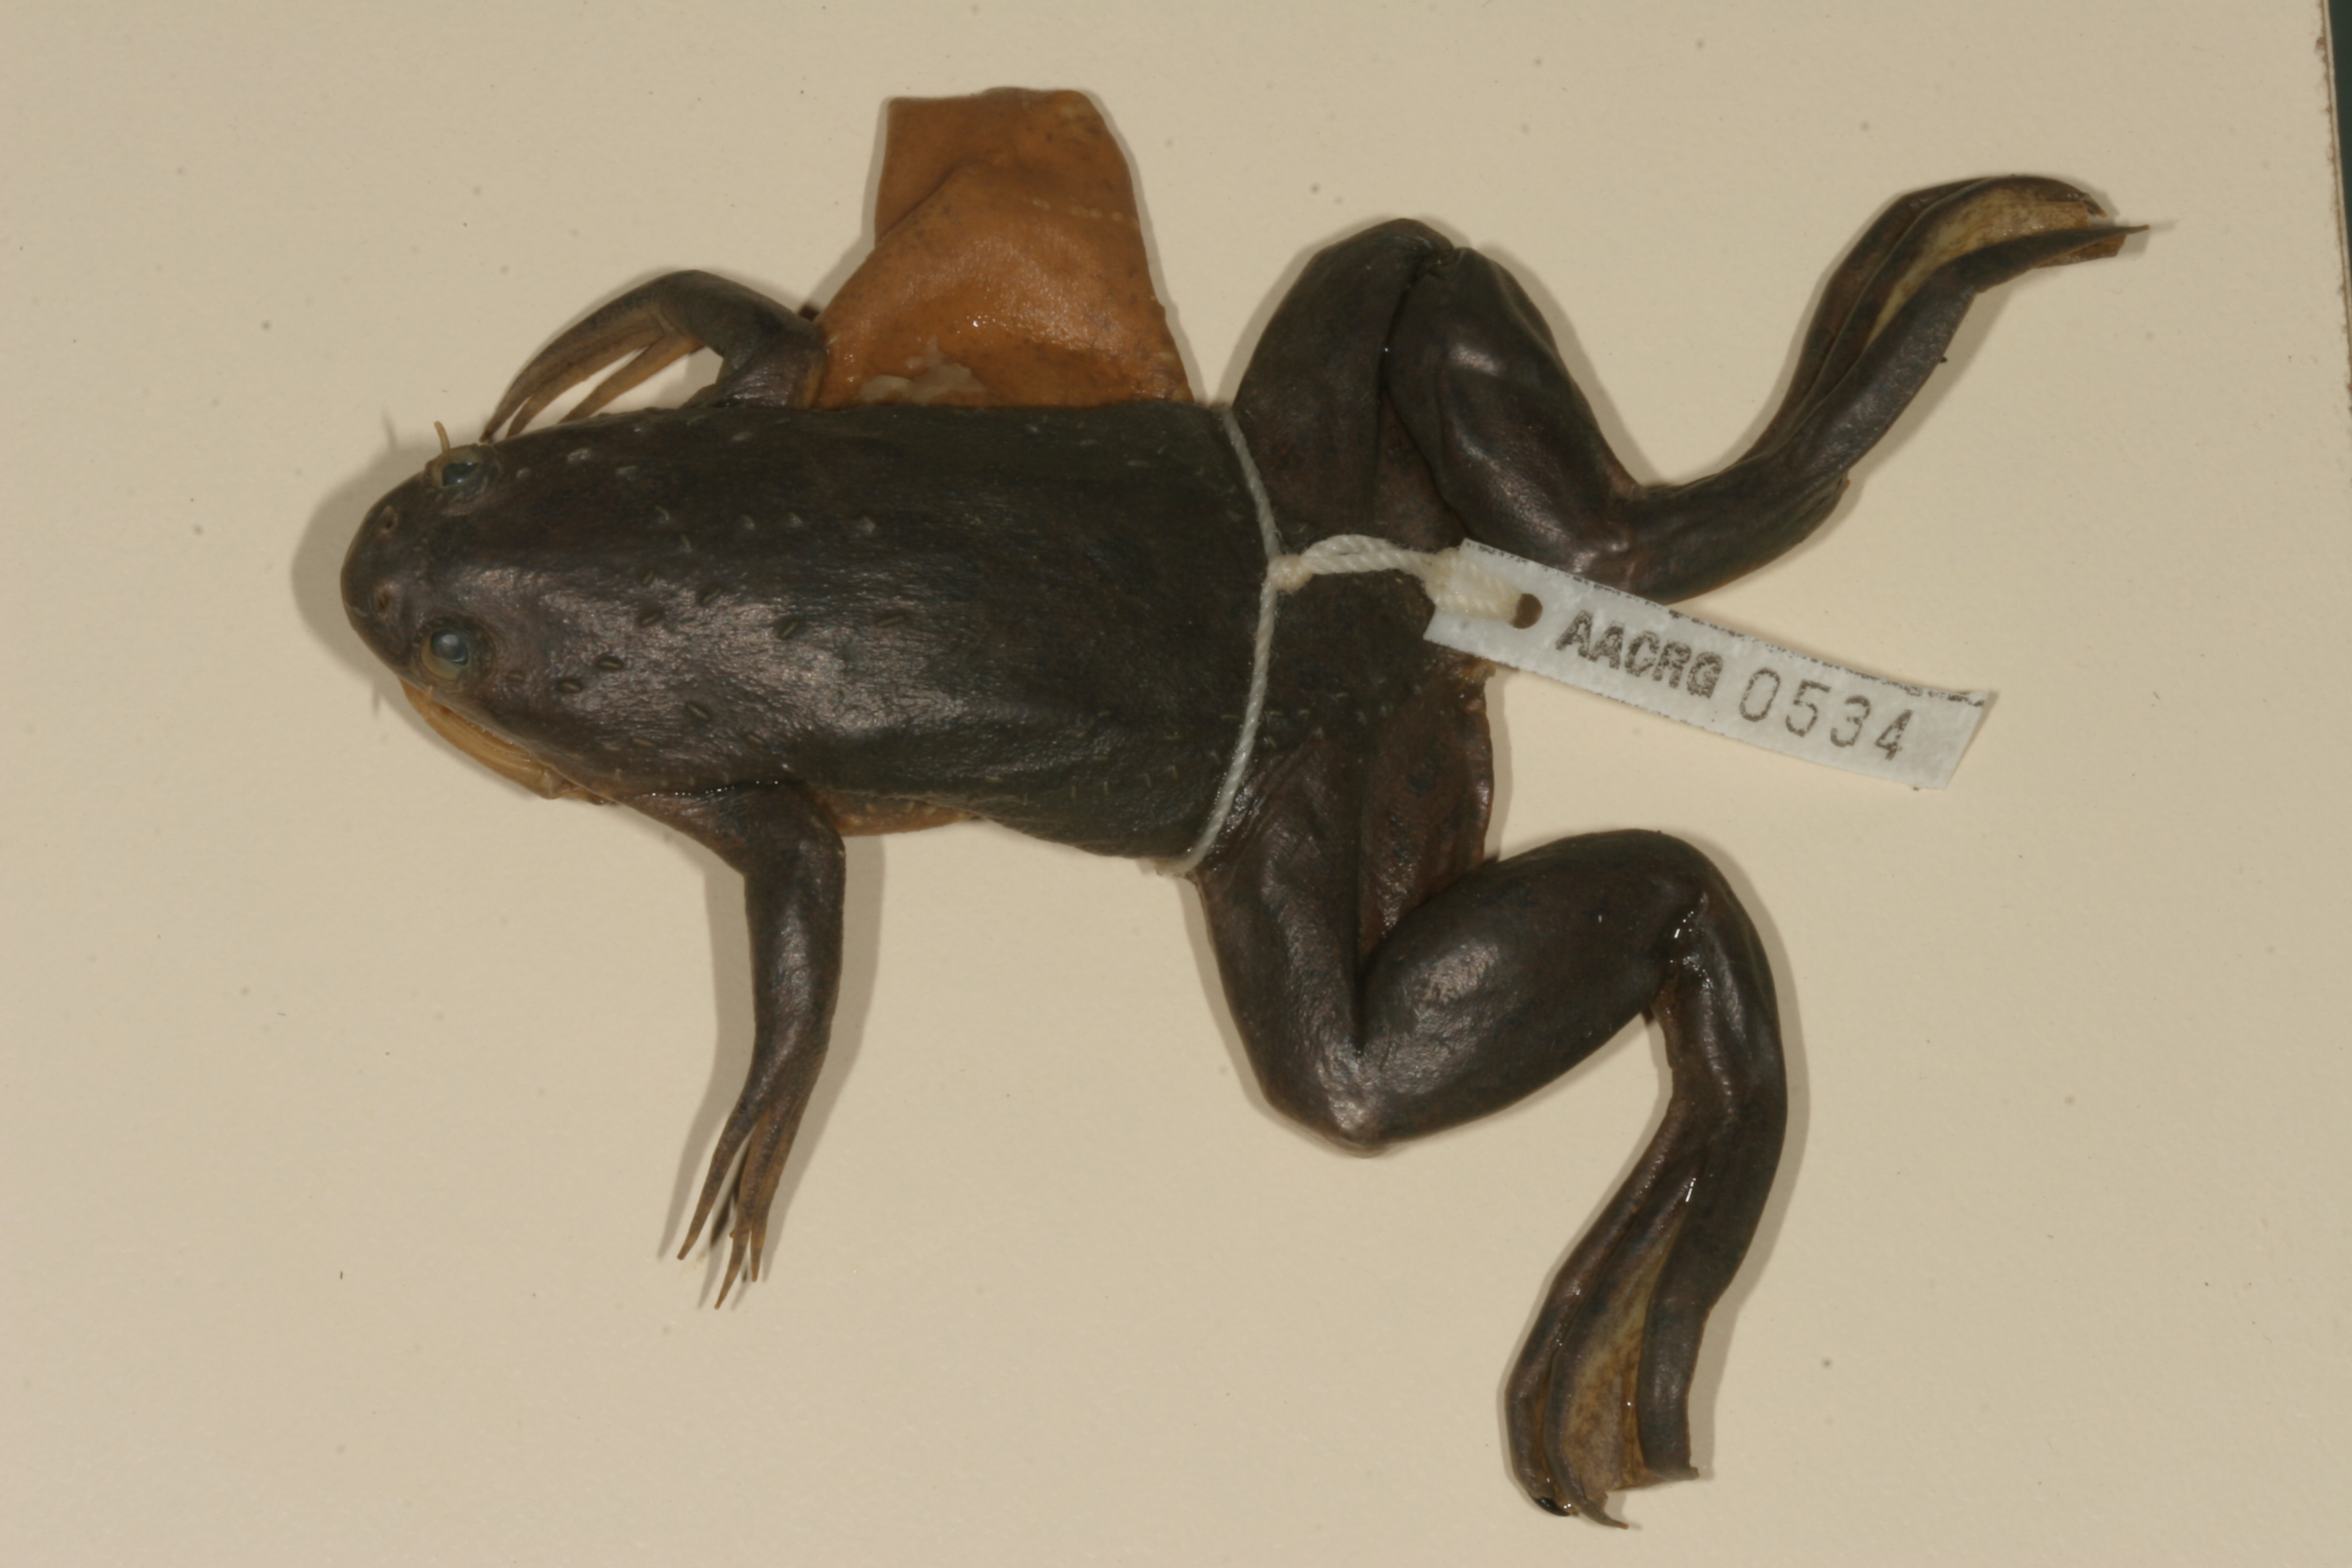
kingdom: Animalia
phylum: Chordata
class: Amphibia
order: Anura
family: Pipidae
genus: Xenopus
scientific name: Xenopus muelleri
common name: Muller's clawed frog
